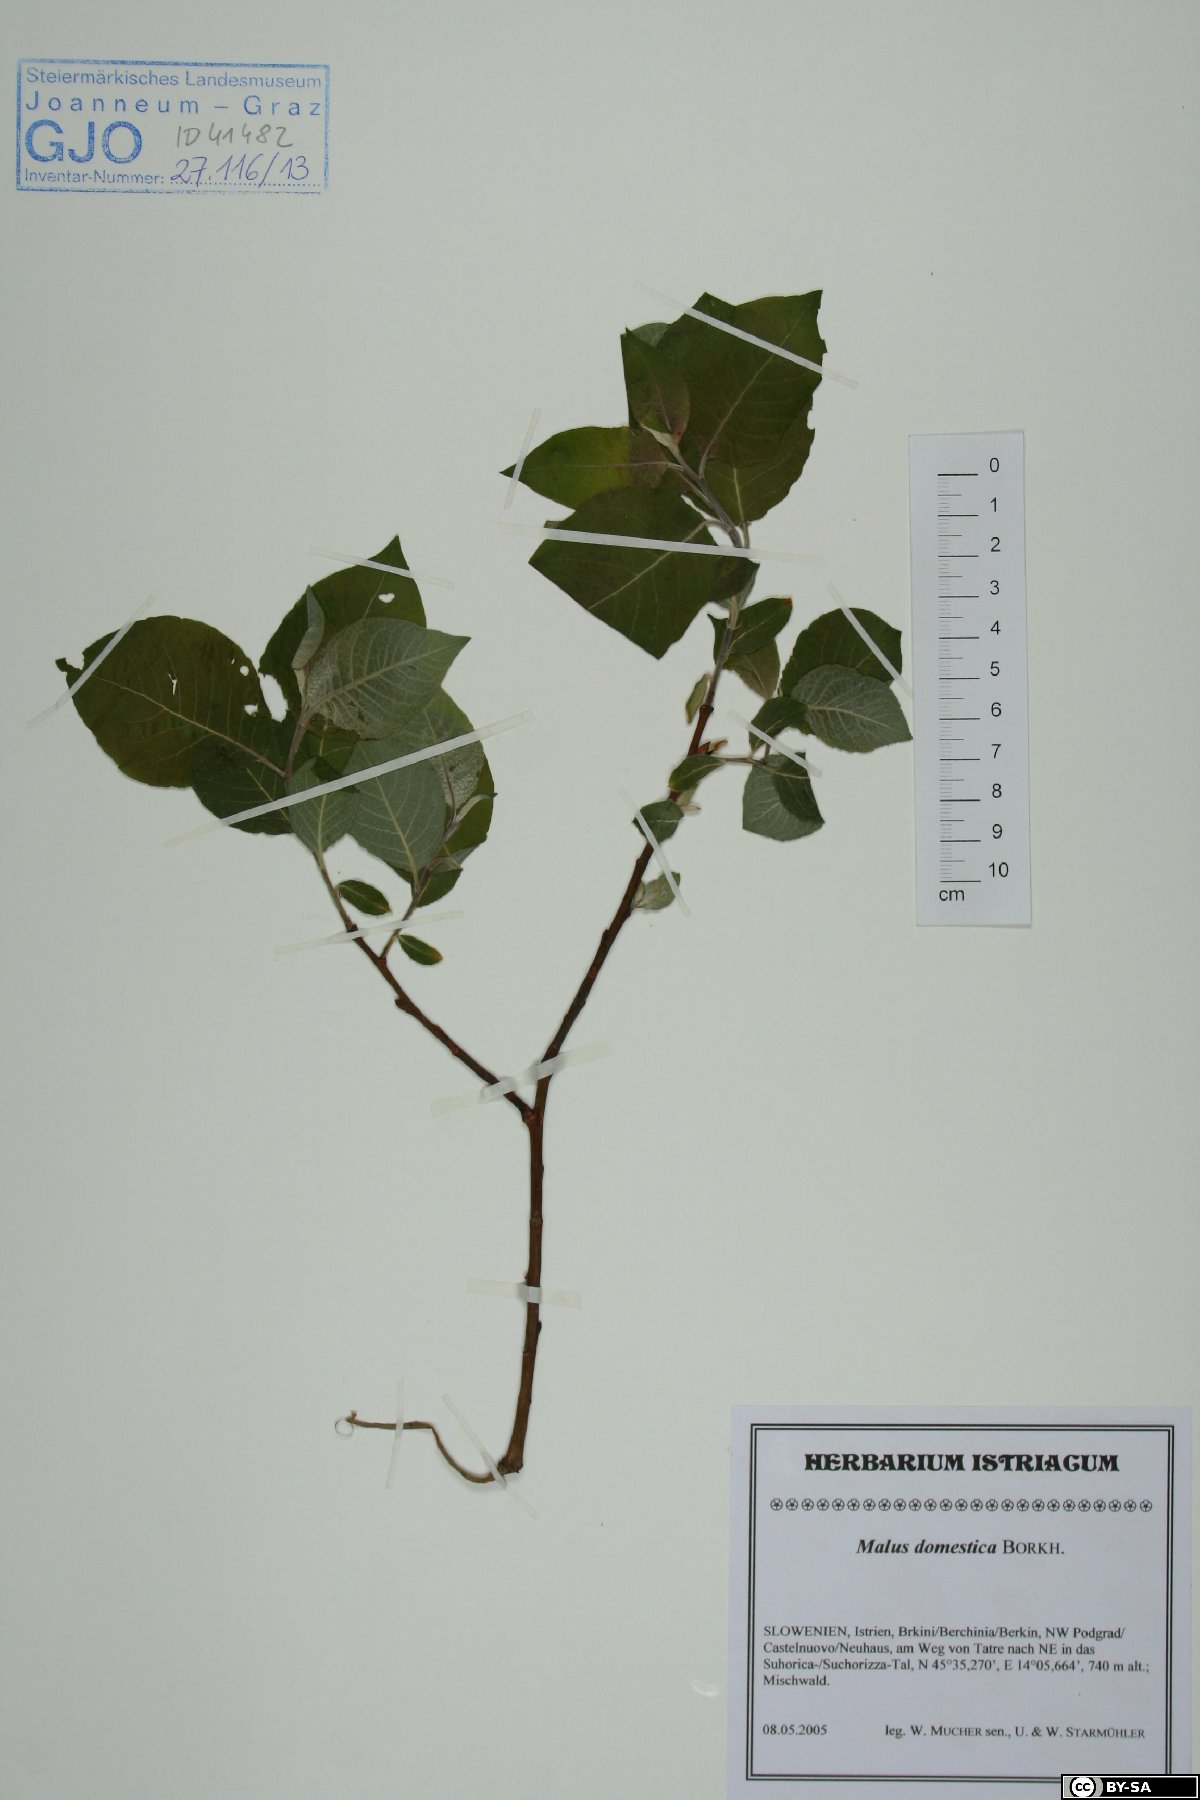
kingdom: Plantae
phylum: Tracheophyta
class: Magnoliopsida
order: Rosales
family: Rosaceae
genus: Malus
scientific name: Malus domestica
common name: Apple
